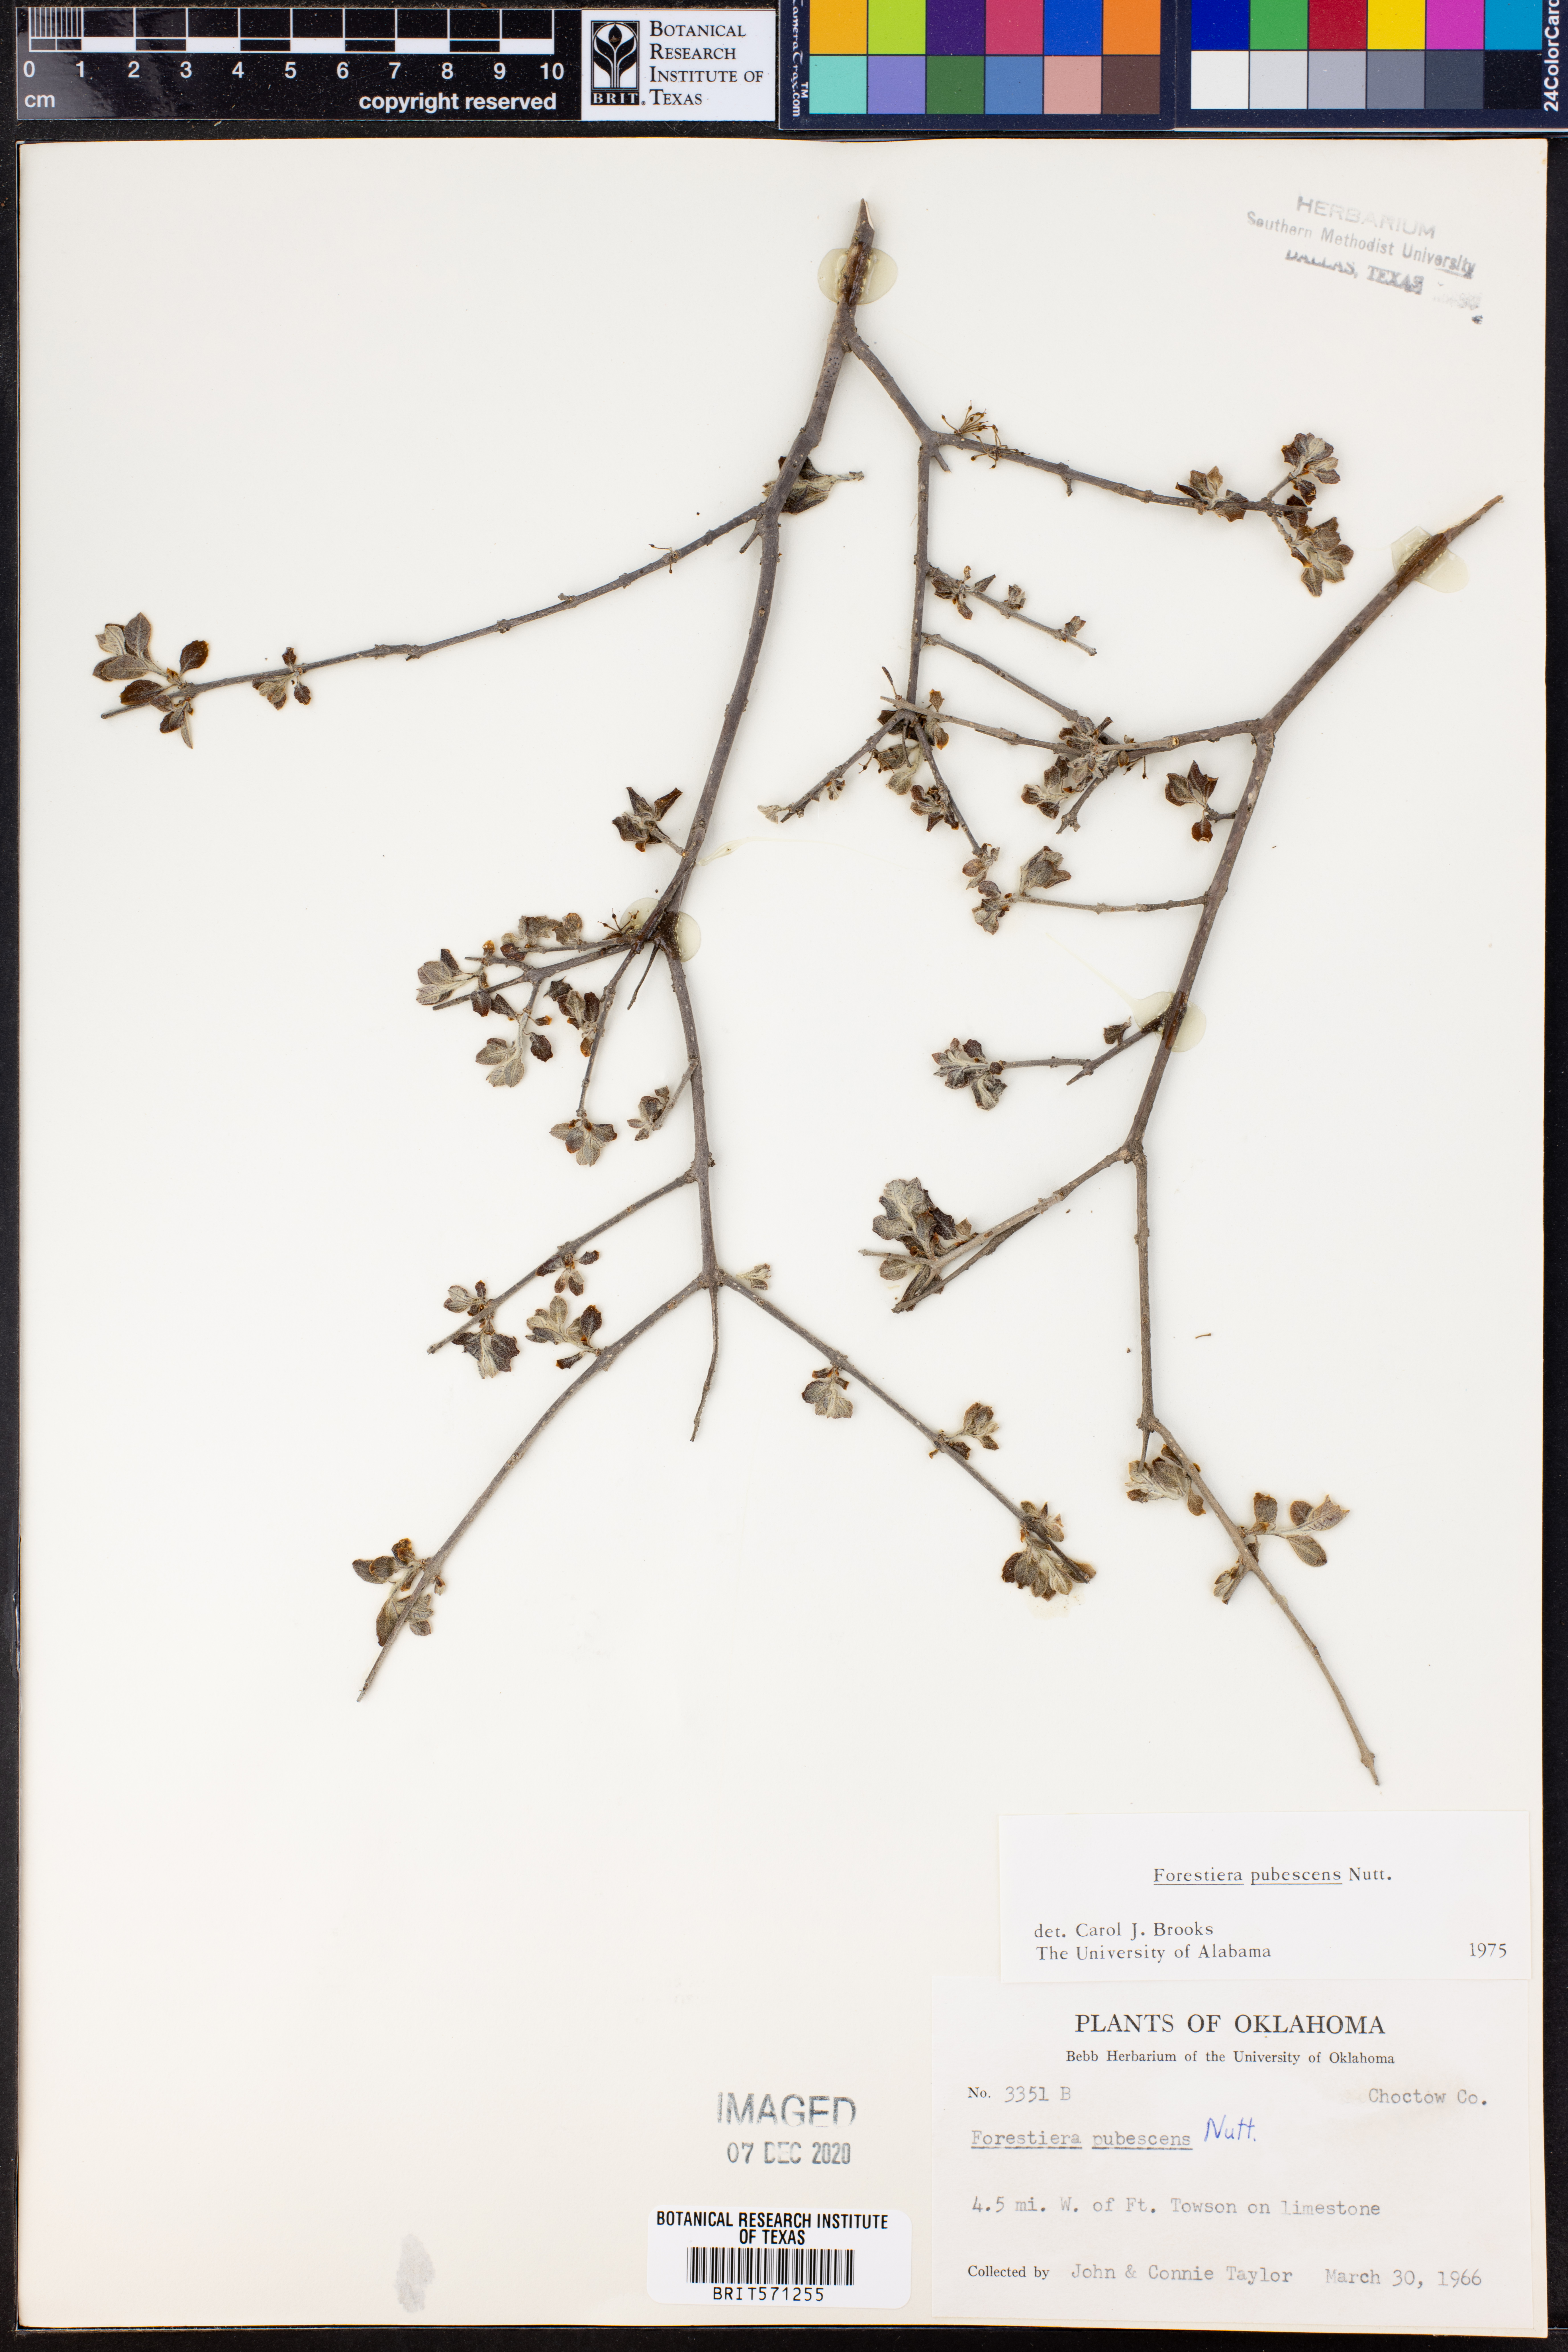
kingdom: Plantae
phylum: Tracheophyta
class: Magnoliopsida
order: Lamiales
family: Oleaceae
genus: Forestiera
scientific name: Forestiera pubescens
